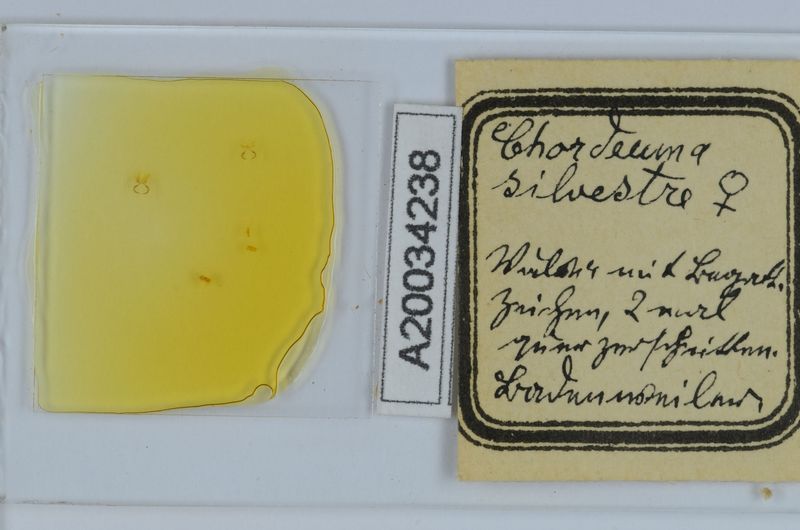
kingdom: Animalia
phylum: Arthropoda
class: Diplopoda
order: Chordeumatida
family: Chordeumatidae
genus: Chordeuma
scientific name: Chordeuma sylvestre
